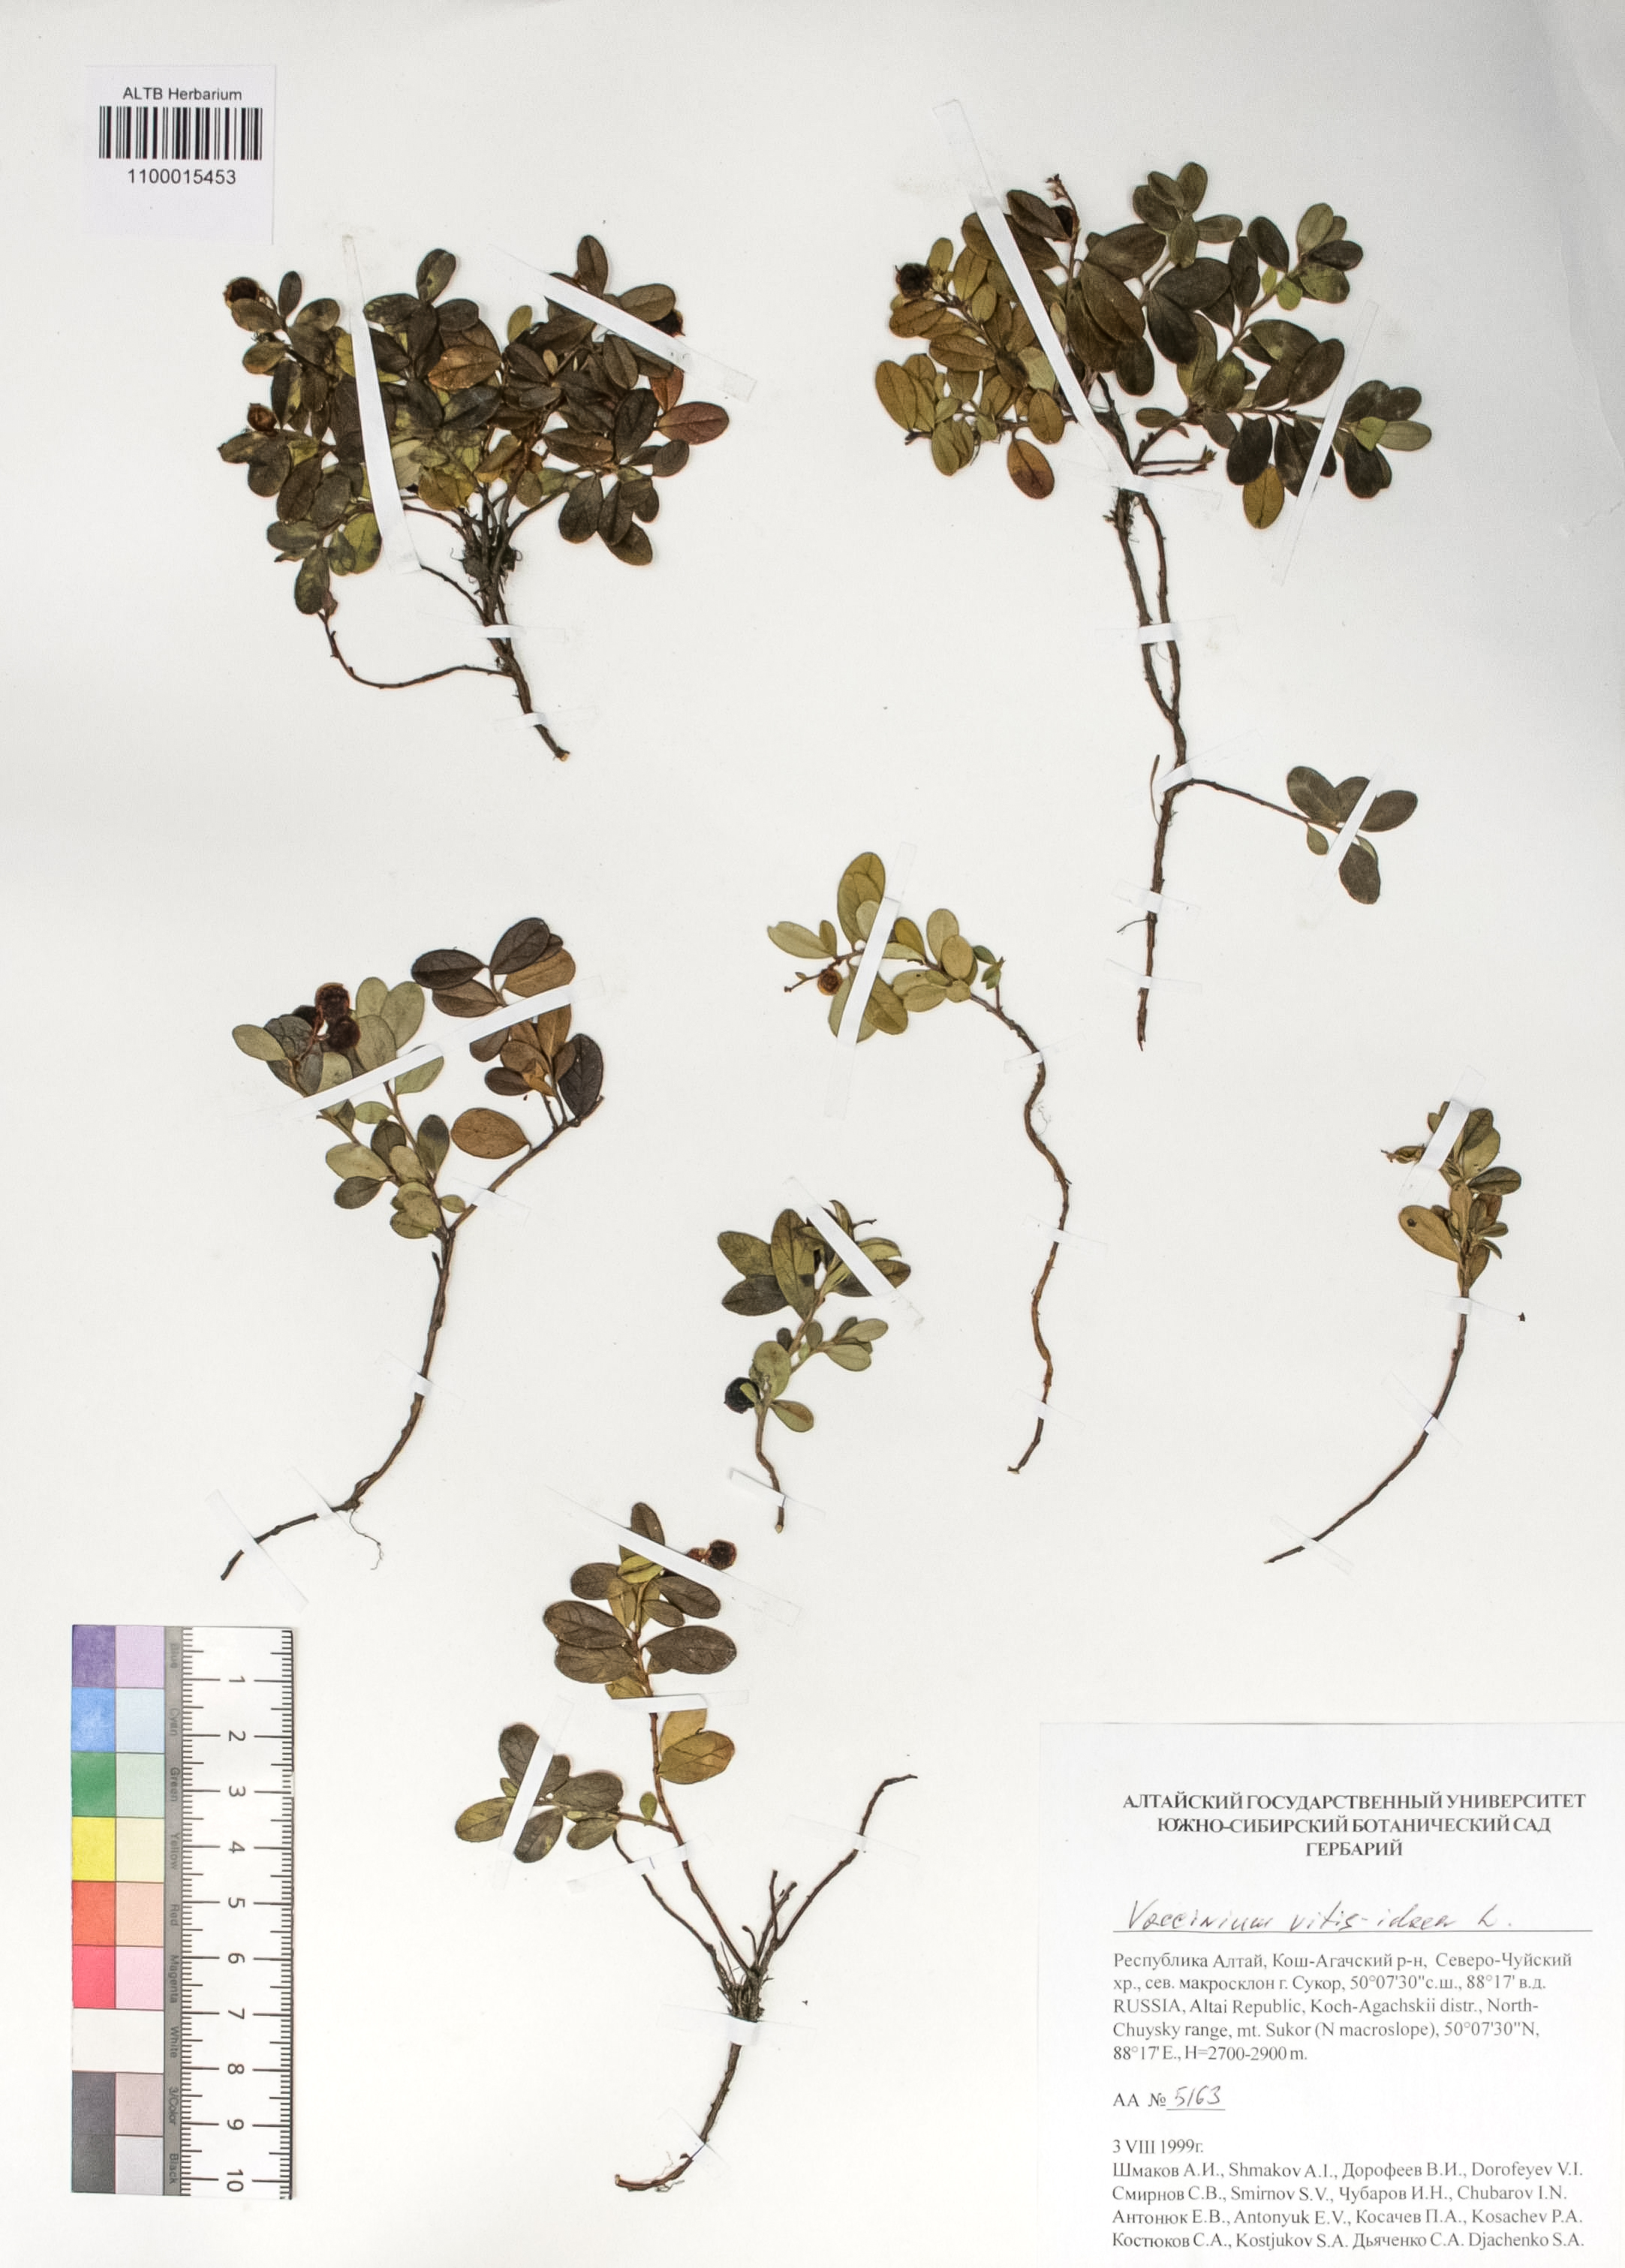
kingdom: Plantae
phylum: Tracheophyta
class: Magnoliopsida
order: Ericales
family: Ericaceae
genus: Vaccinium
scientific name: Vaccinium vitis-idaea
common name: Cowberry
